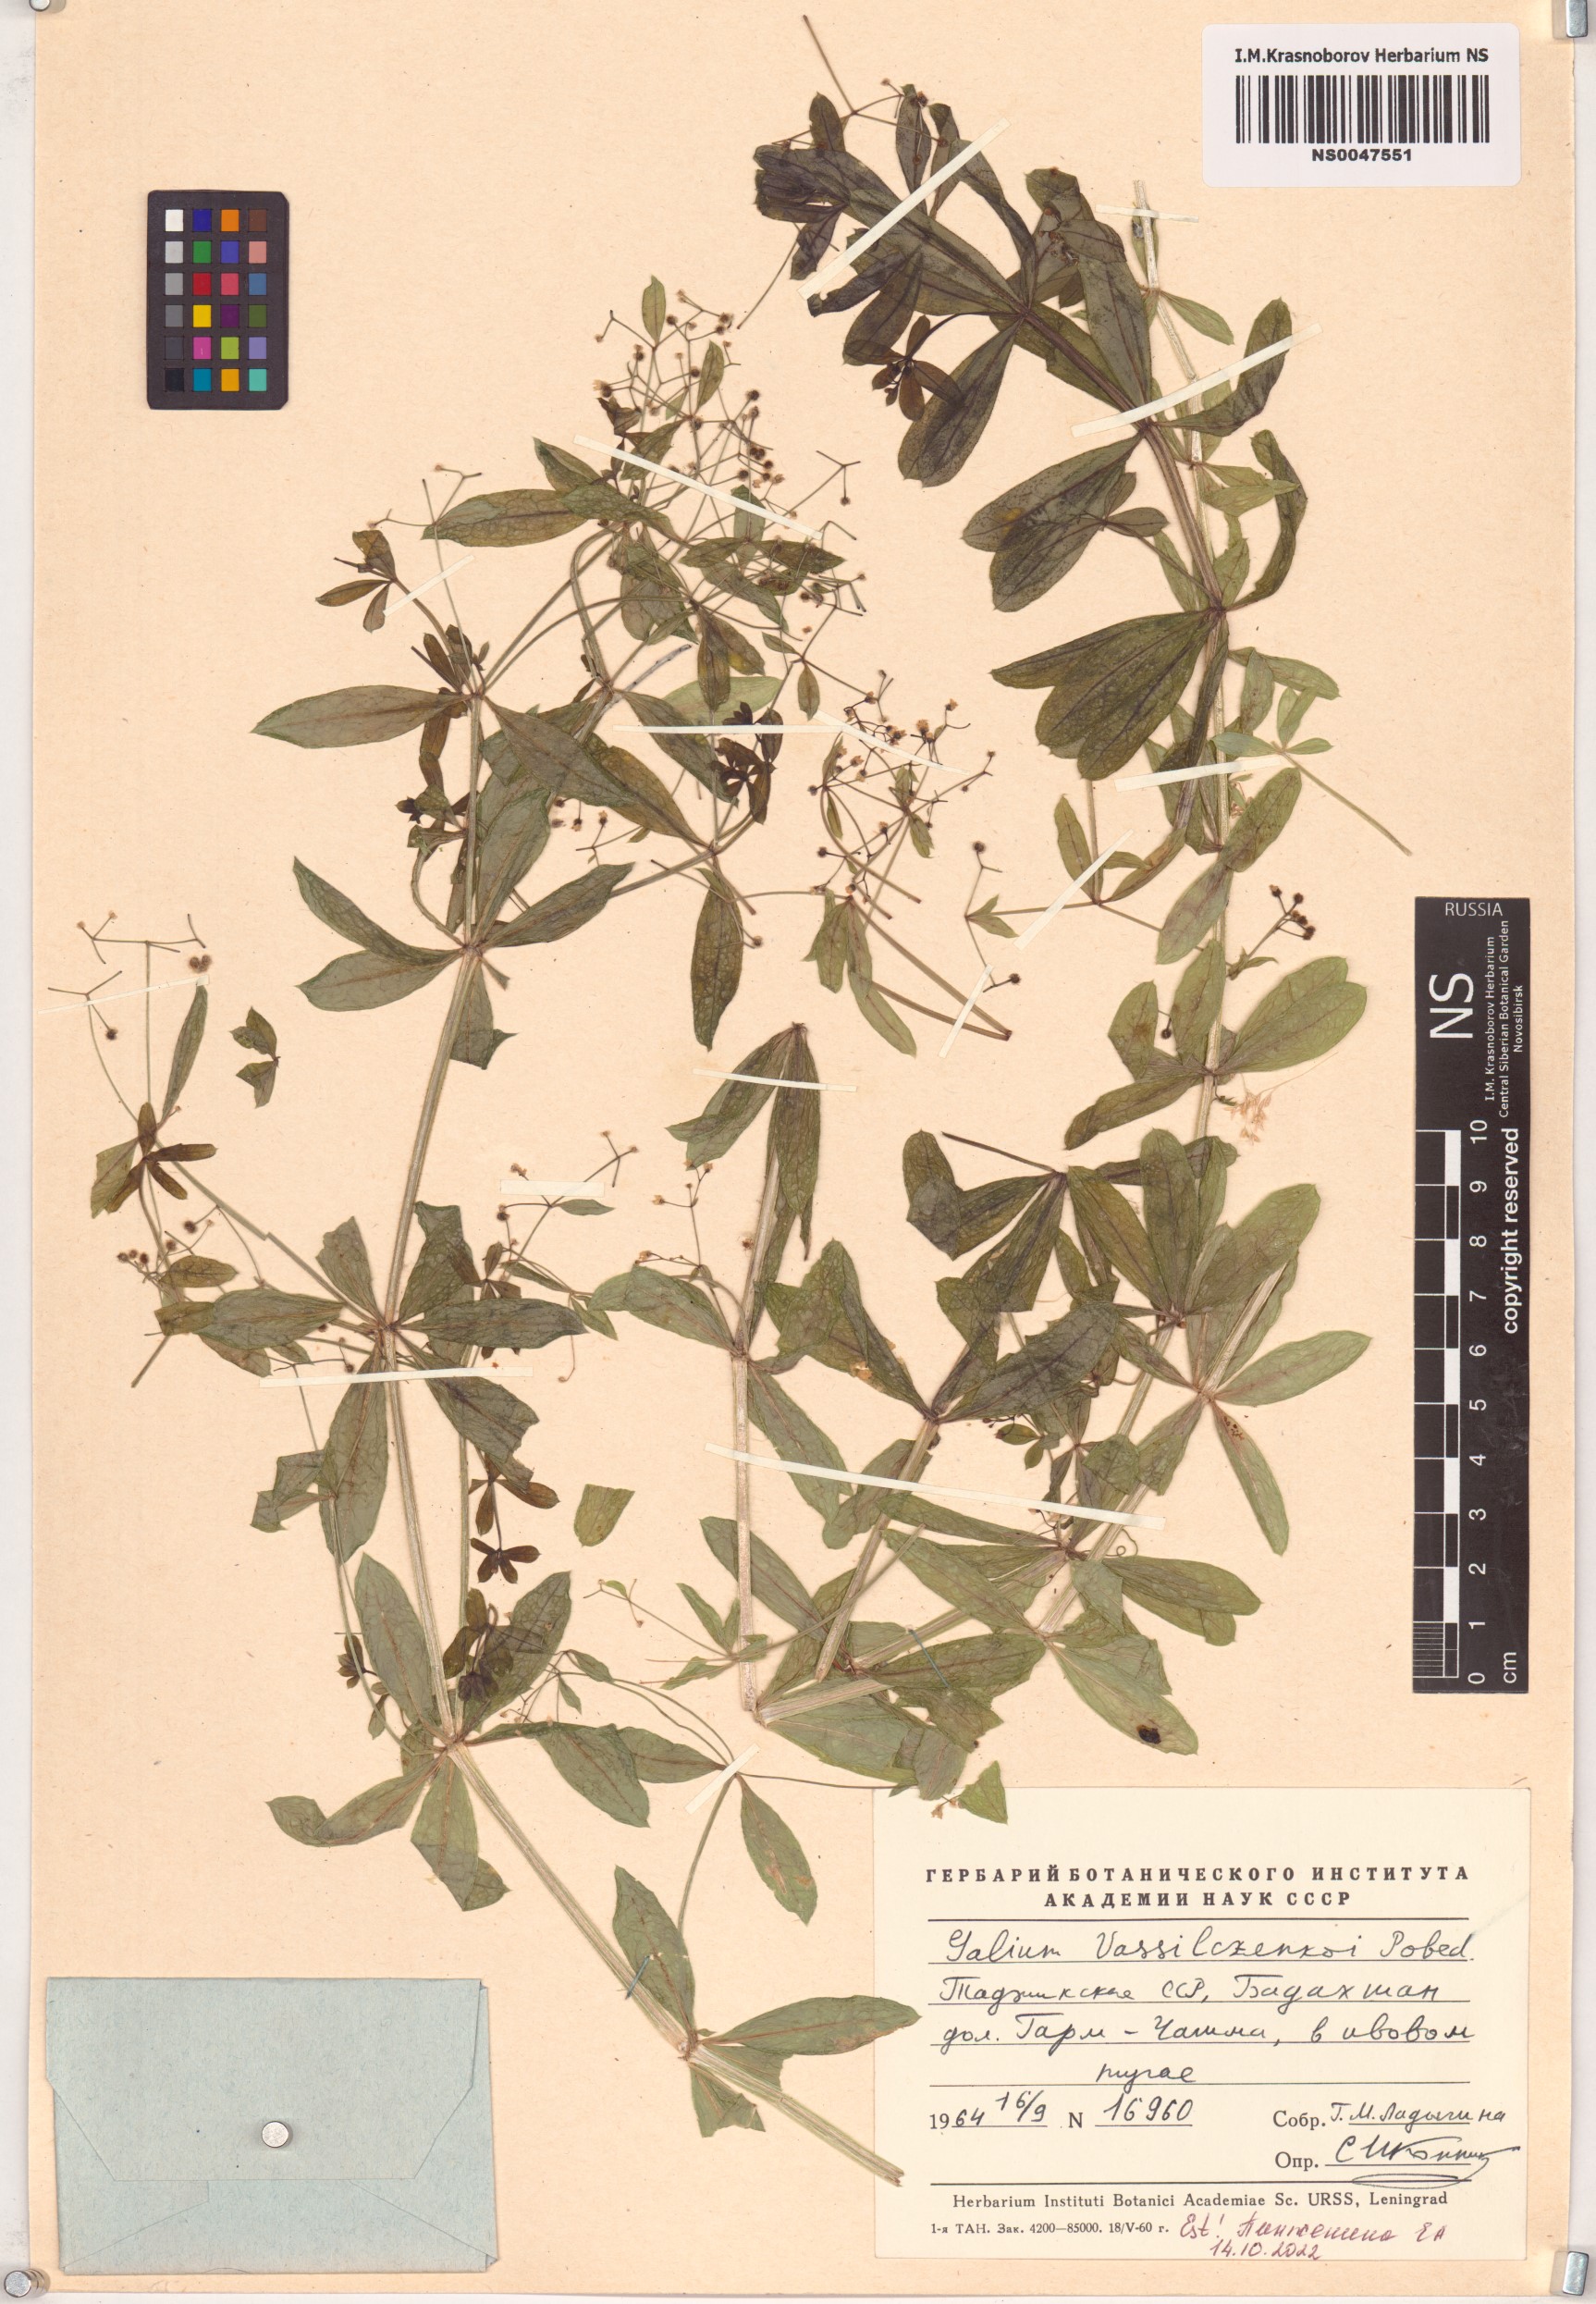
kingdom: Plantae
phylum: Tracheophyta
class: Magnoliopsida
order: Gentianales
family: Rubiaceae
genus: Galium
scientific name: Galium vassilczenkoi
